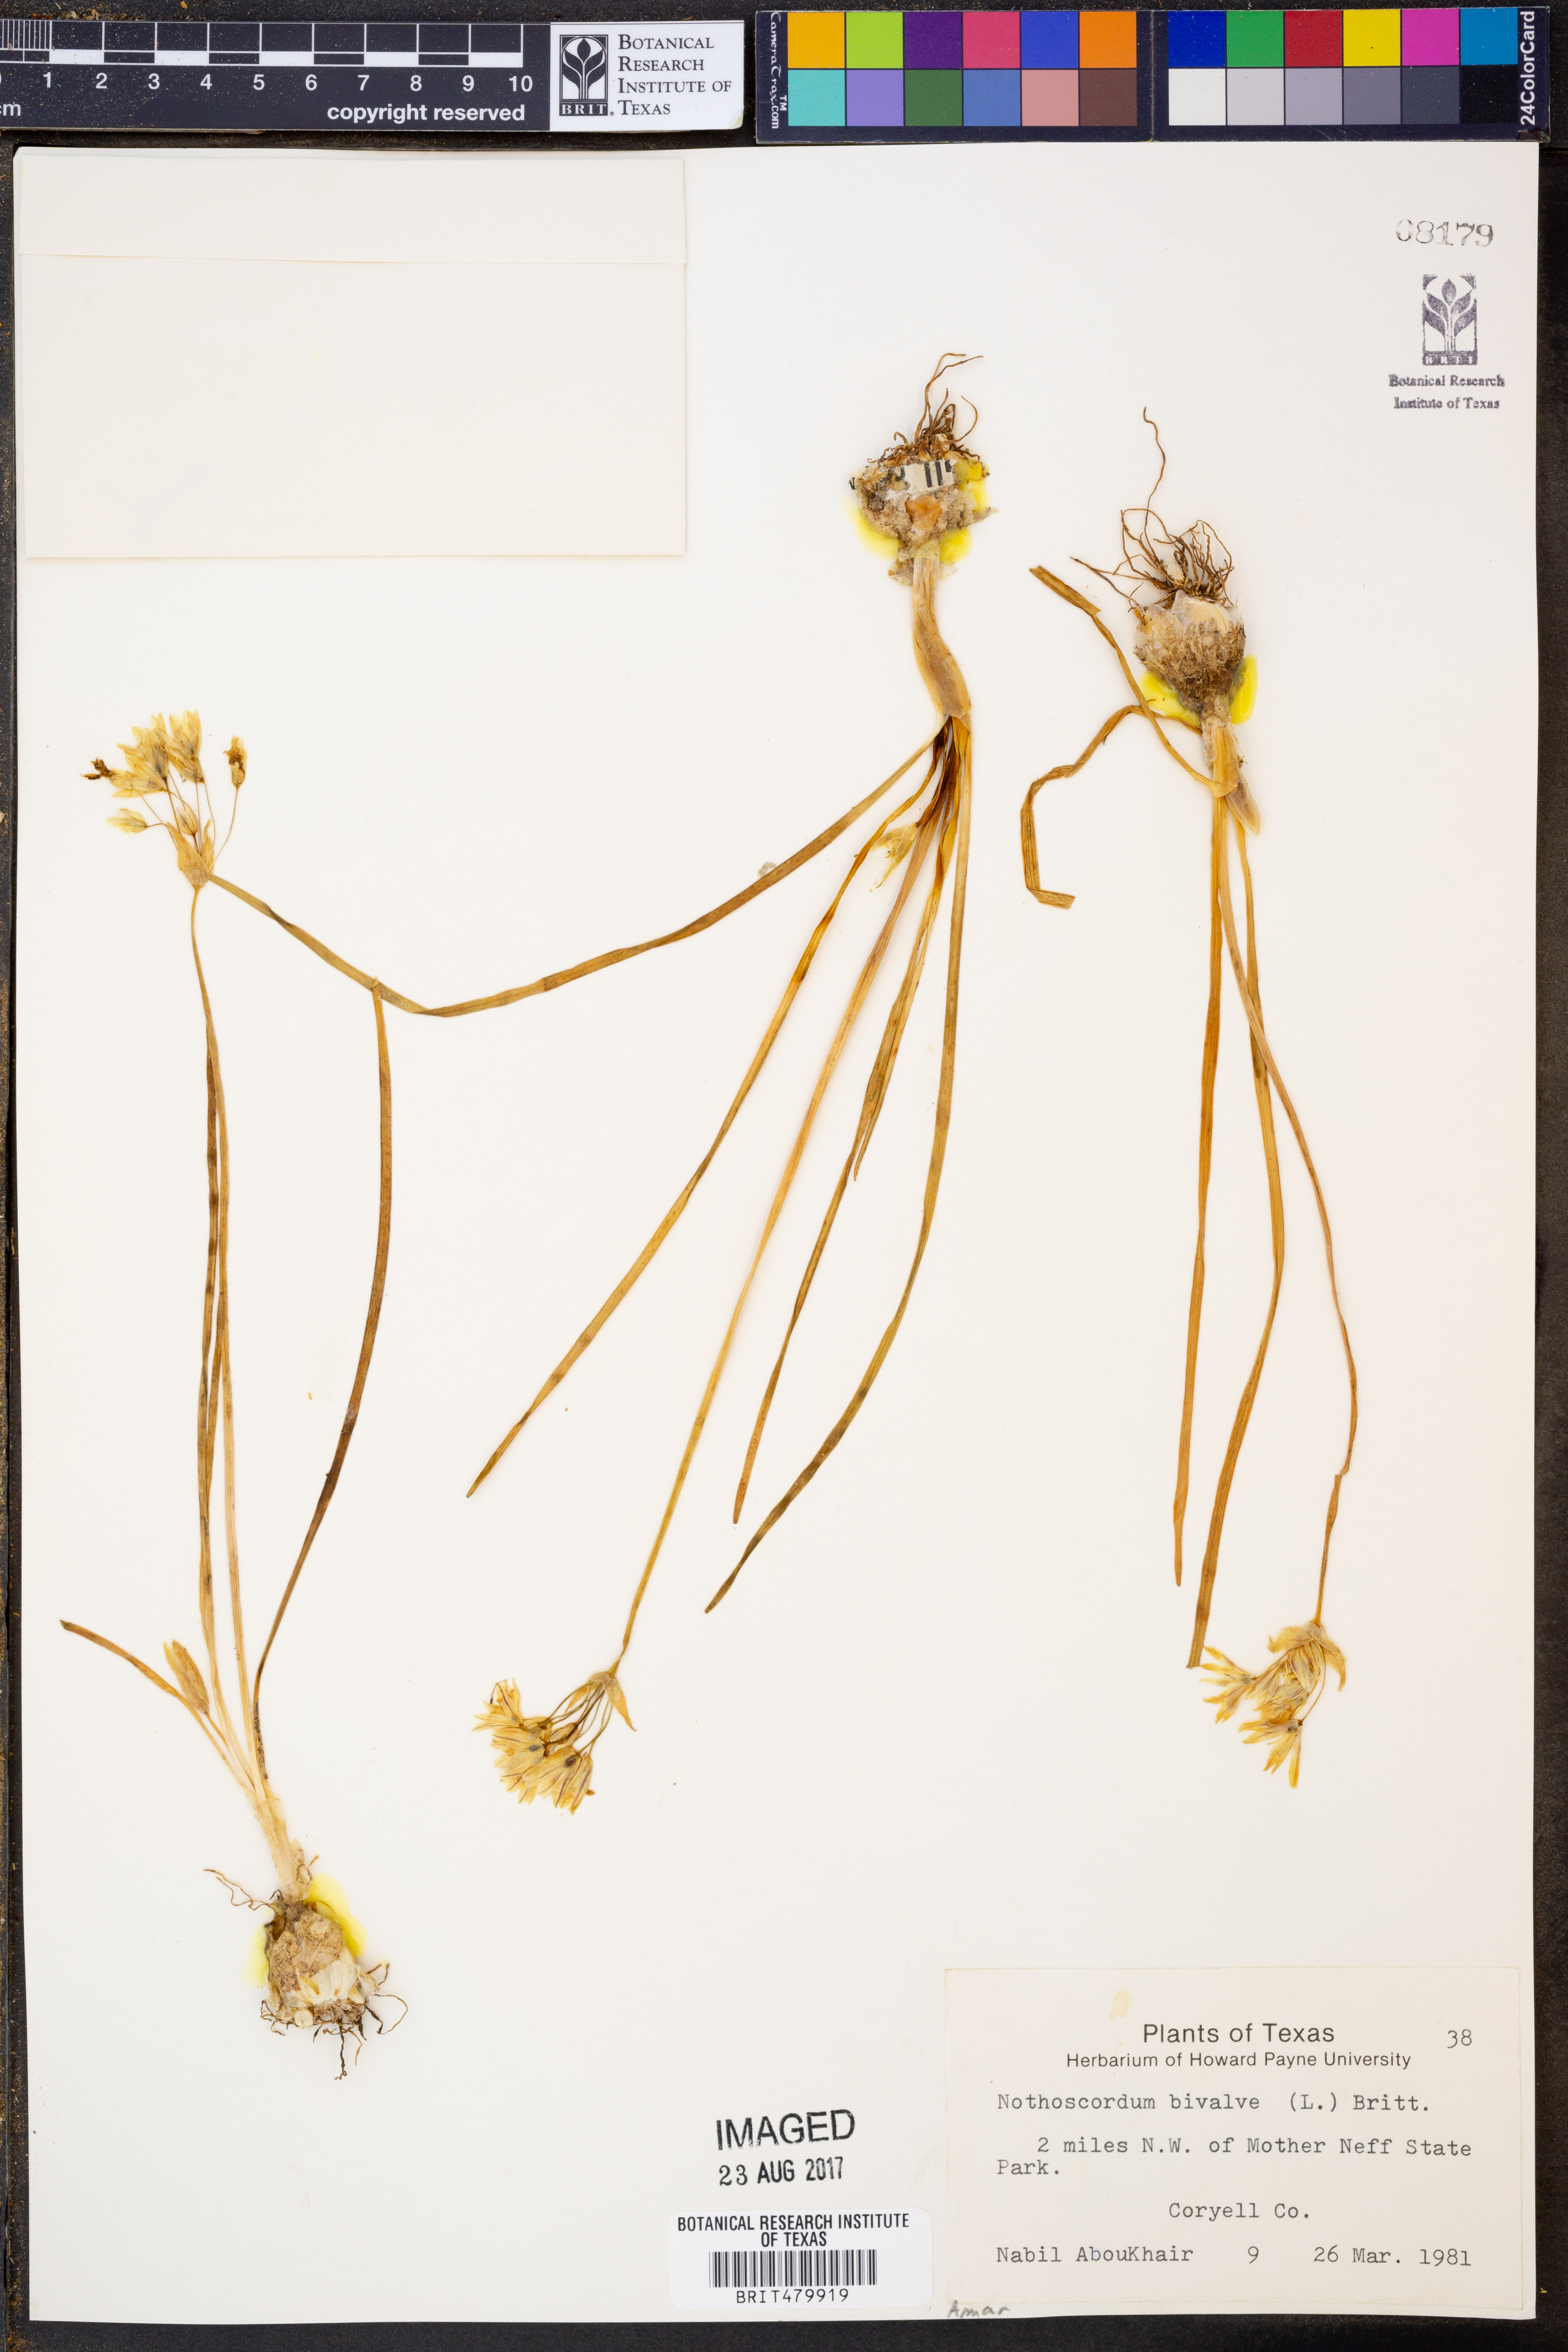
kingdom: Plantae
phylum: Tracheophyta
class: Liliopsida
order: Asparagales
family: Amaryllidaceae
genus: Nothoscordum
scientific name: Nothoscordum bivalve
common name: Crow-poison
